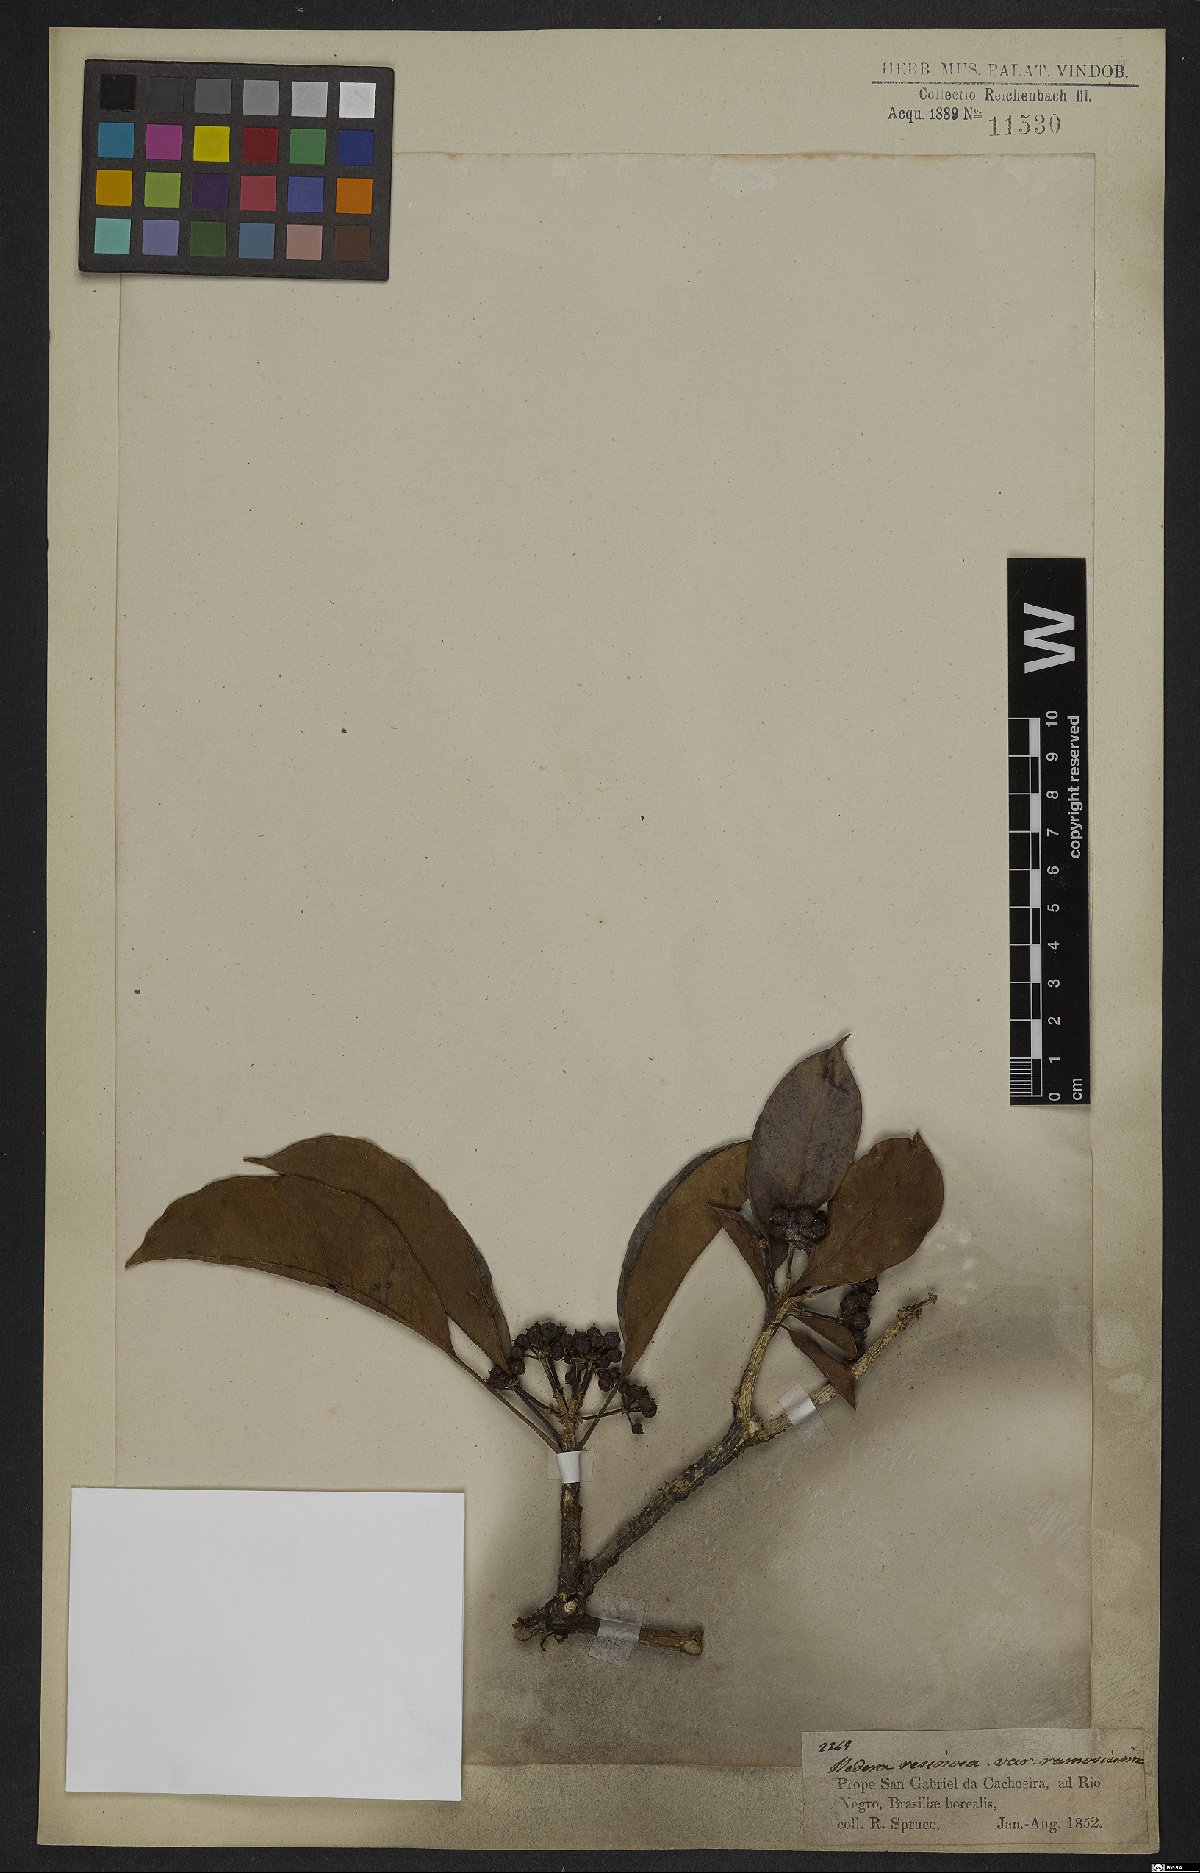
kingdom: Plantae
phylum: Tracheophyta
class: Magnoliopsida
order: Apiales
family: Araliaceae
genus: Dendropanax
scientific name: Dendropanax resinosus
